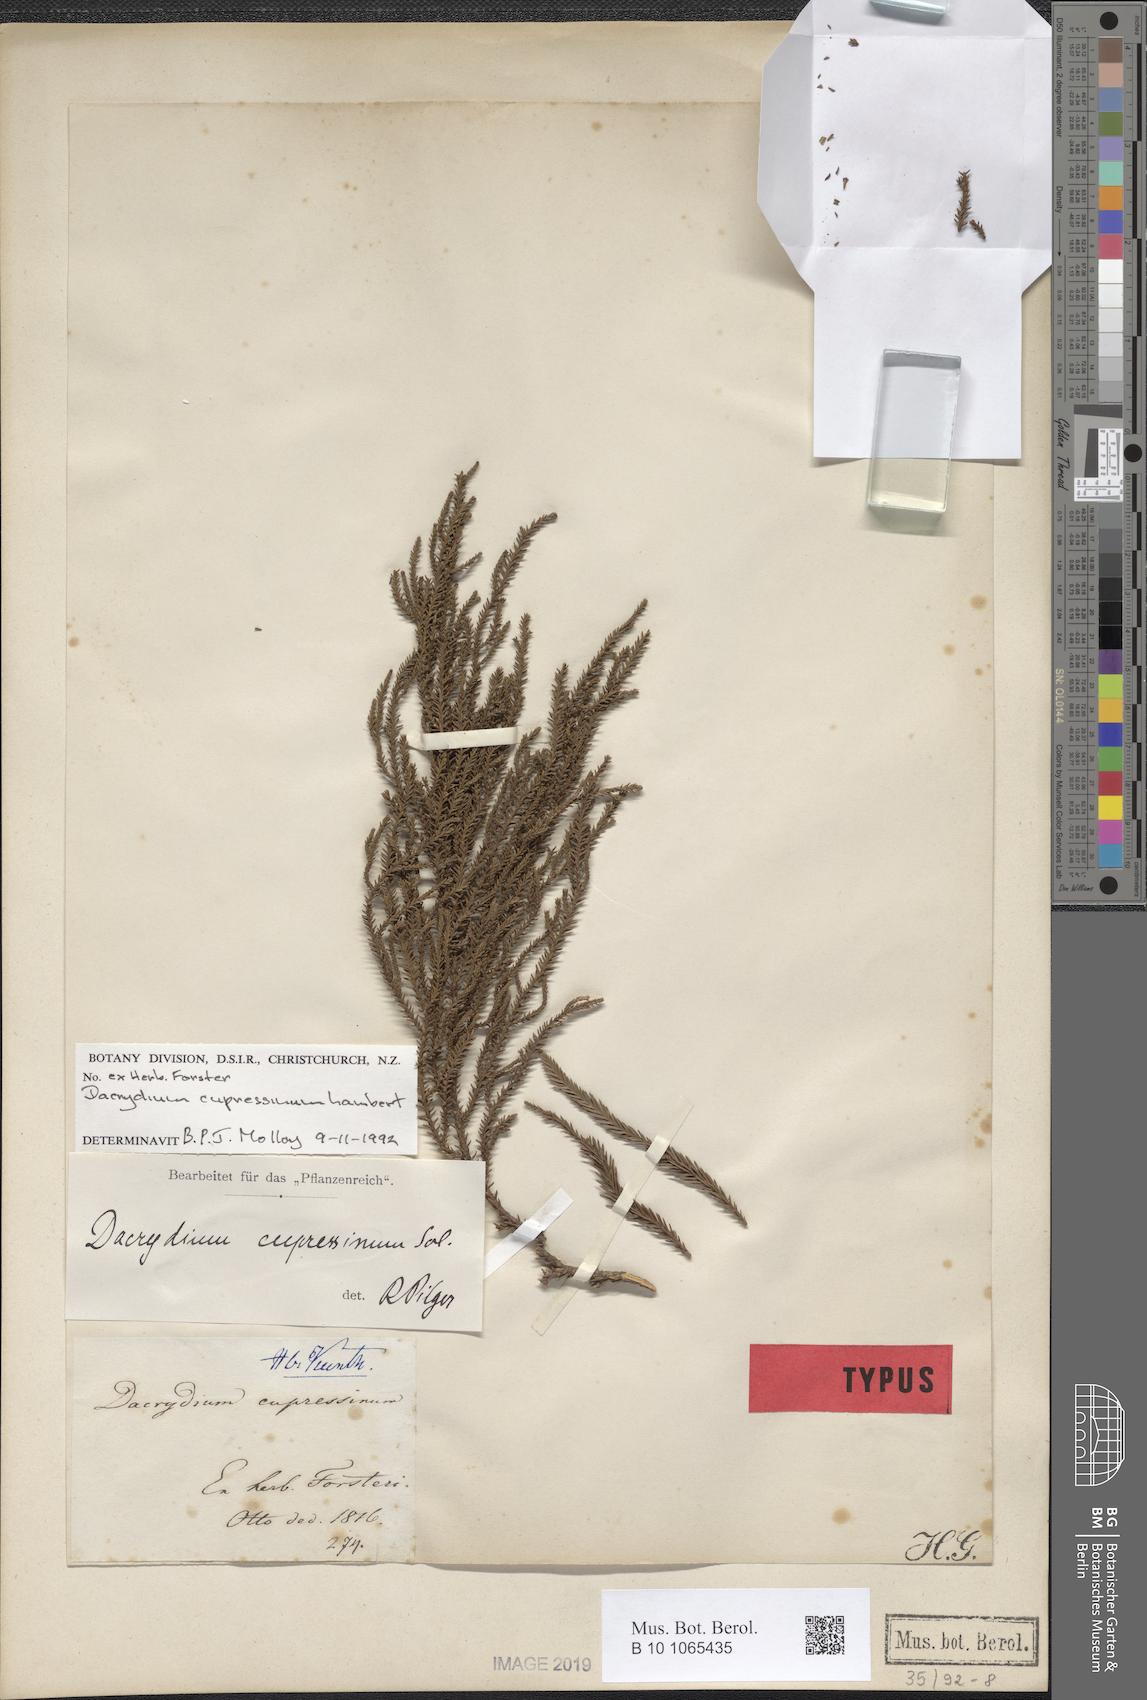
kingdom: Plantae
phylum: Tracheophyta
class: Pinopsida
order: Pinales
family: Podocarpaceae
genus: Dacrydium
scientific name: Dacrydium cupressinum
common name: Red pine
